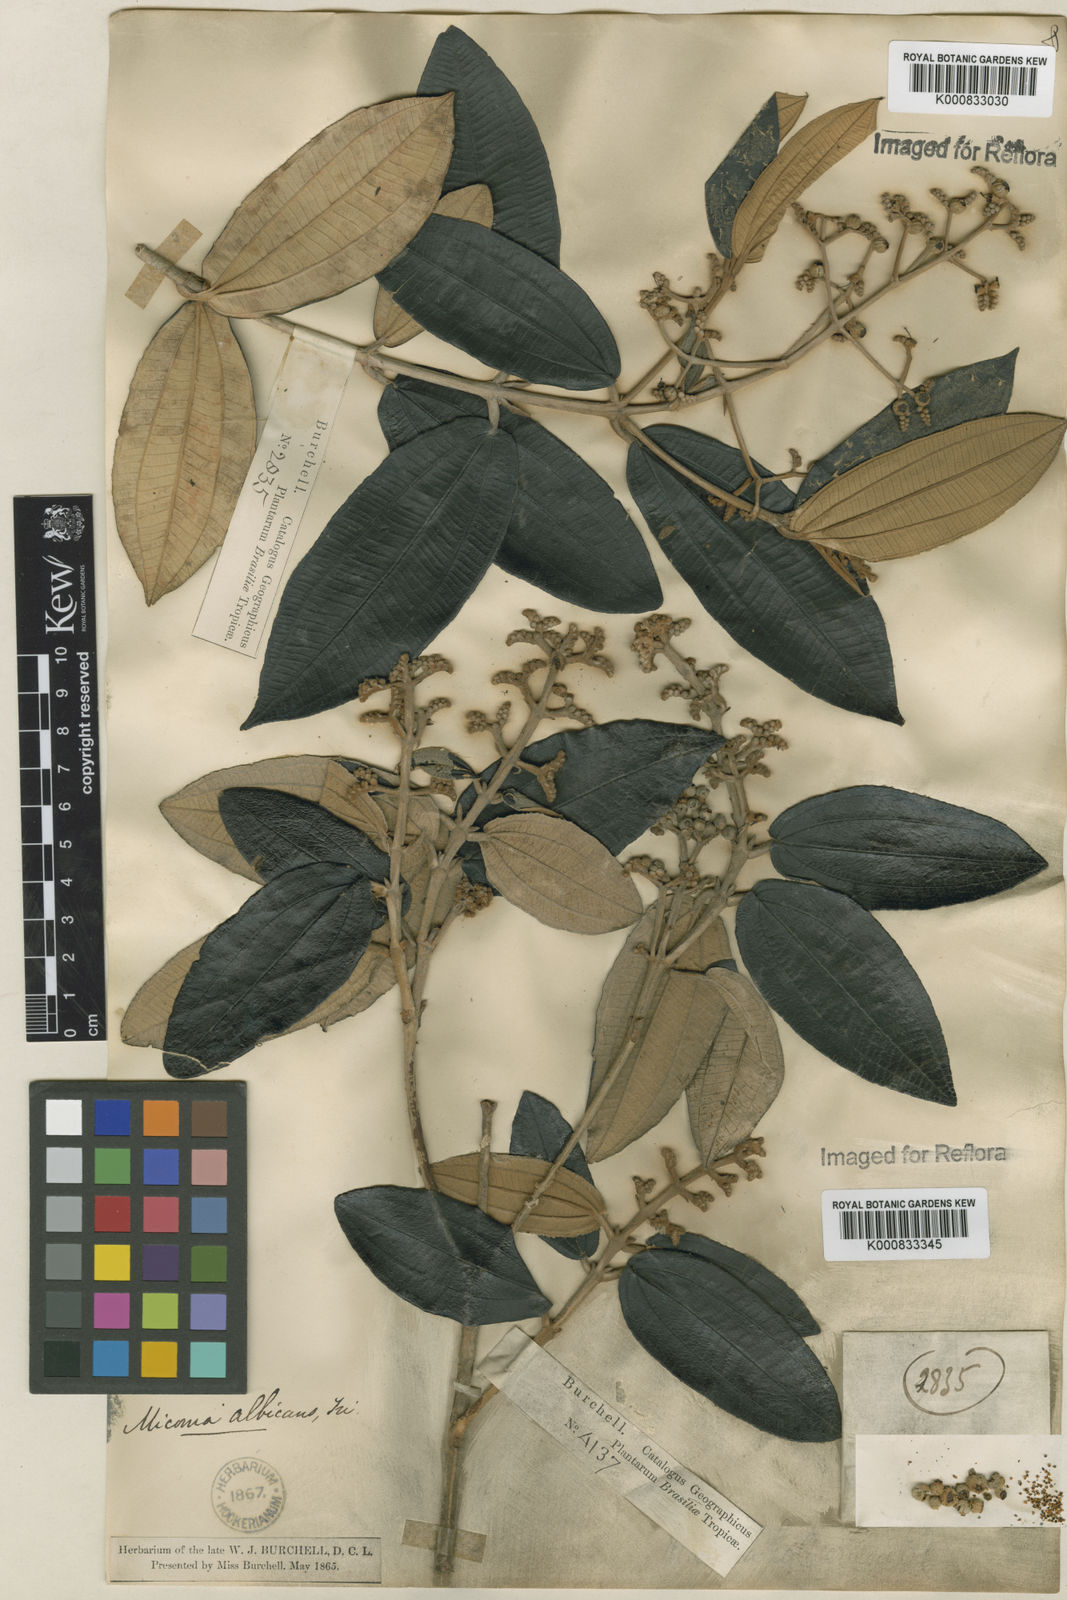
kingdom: Plantae
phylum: Tracheophyta
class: Magnoliopsida
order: Myrtales
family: Melastomataceae
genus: Miconia
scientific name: Miconia albicans
